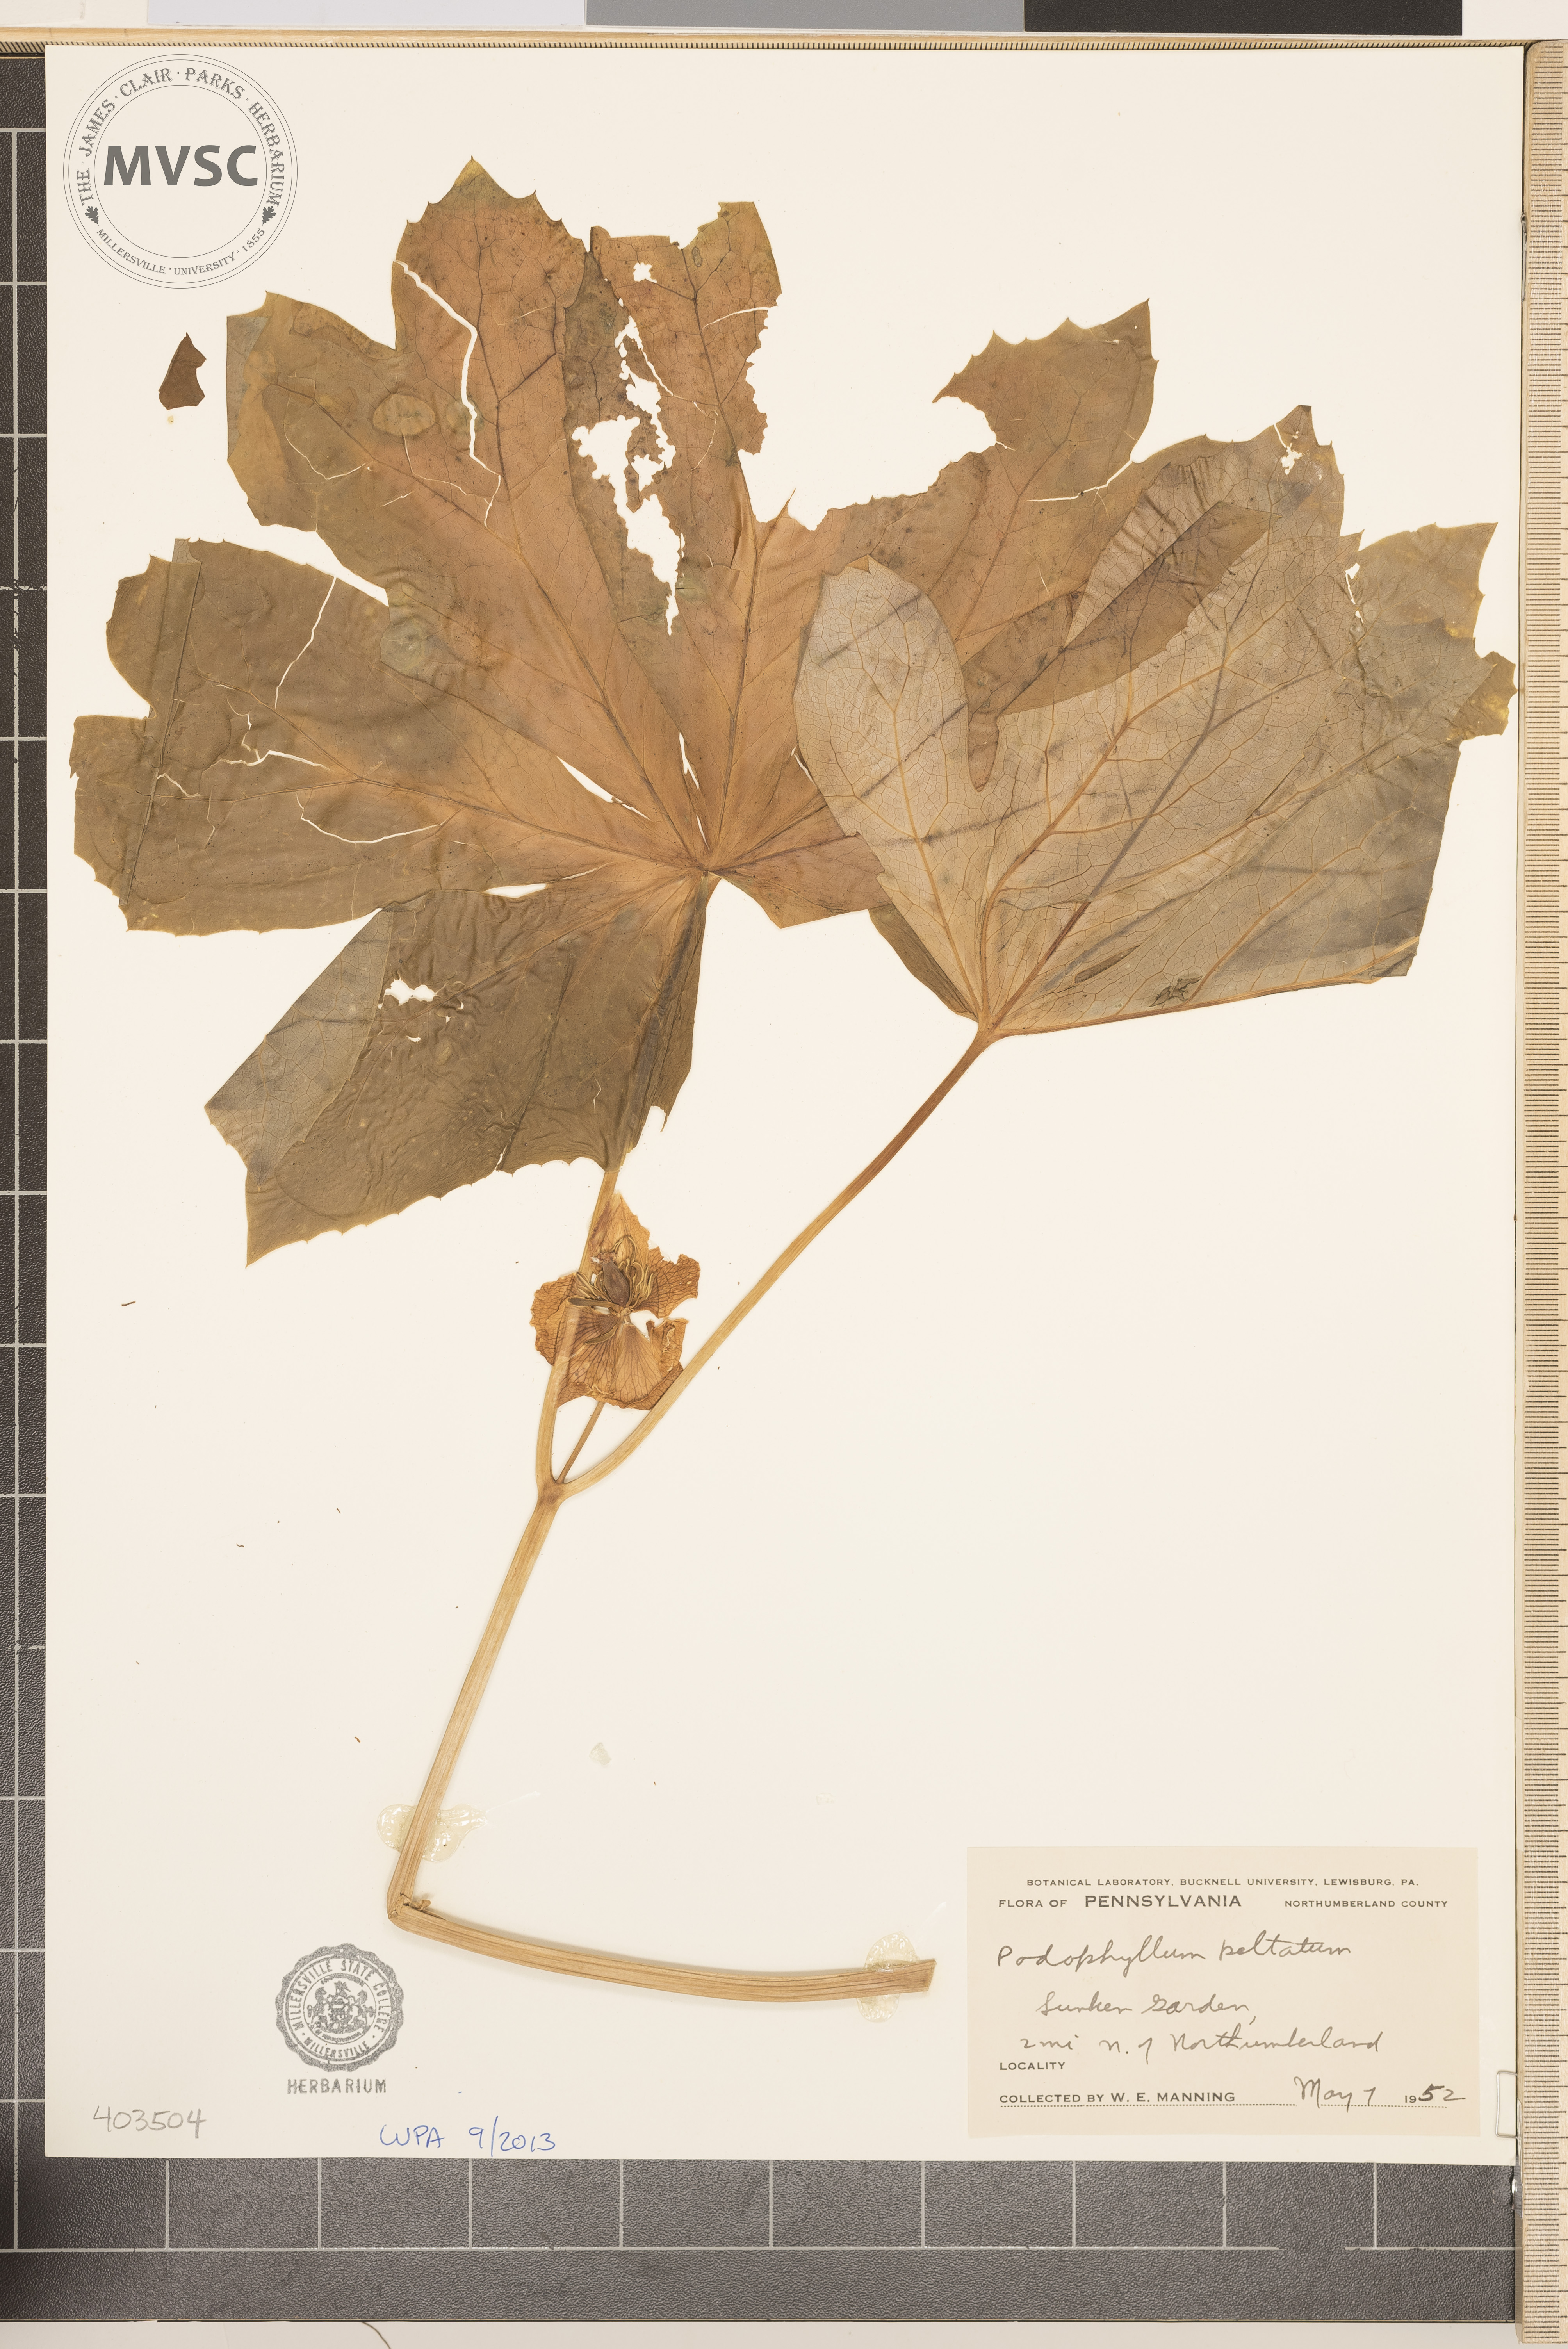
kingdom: Plantae
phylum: Tracheophyta
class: Magnoliopsida
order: Ranunculales
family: Berberidaceae
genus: Podophyllum
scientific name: Podophyllum peltatum
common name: May-Apple
